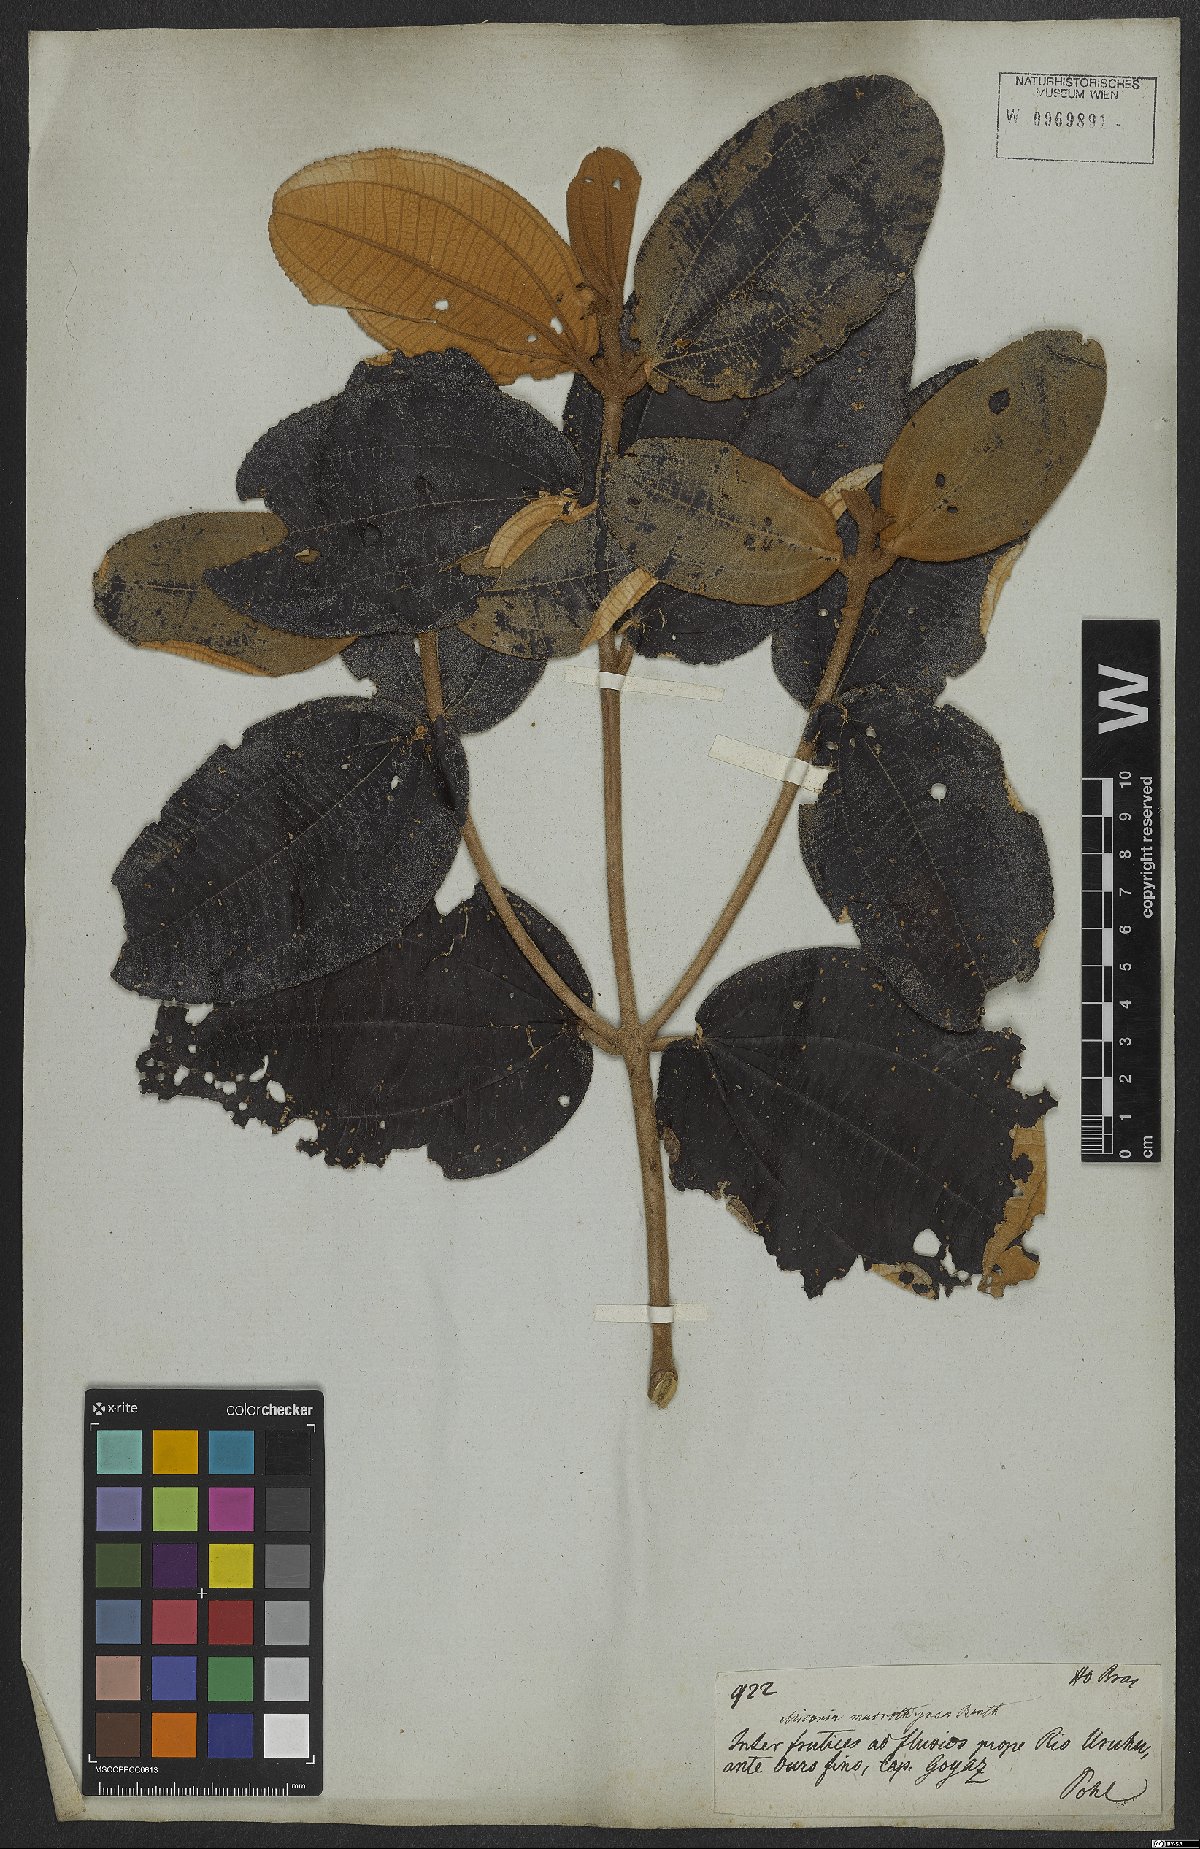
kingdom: Plantae
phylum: Tracheophyta
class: Magnoliopsida
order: Myrtales
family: Melastomataceae
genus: Miconia
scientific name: Miconia aplostachya
